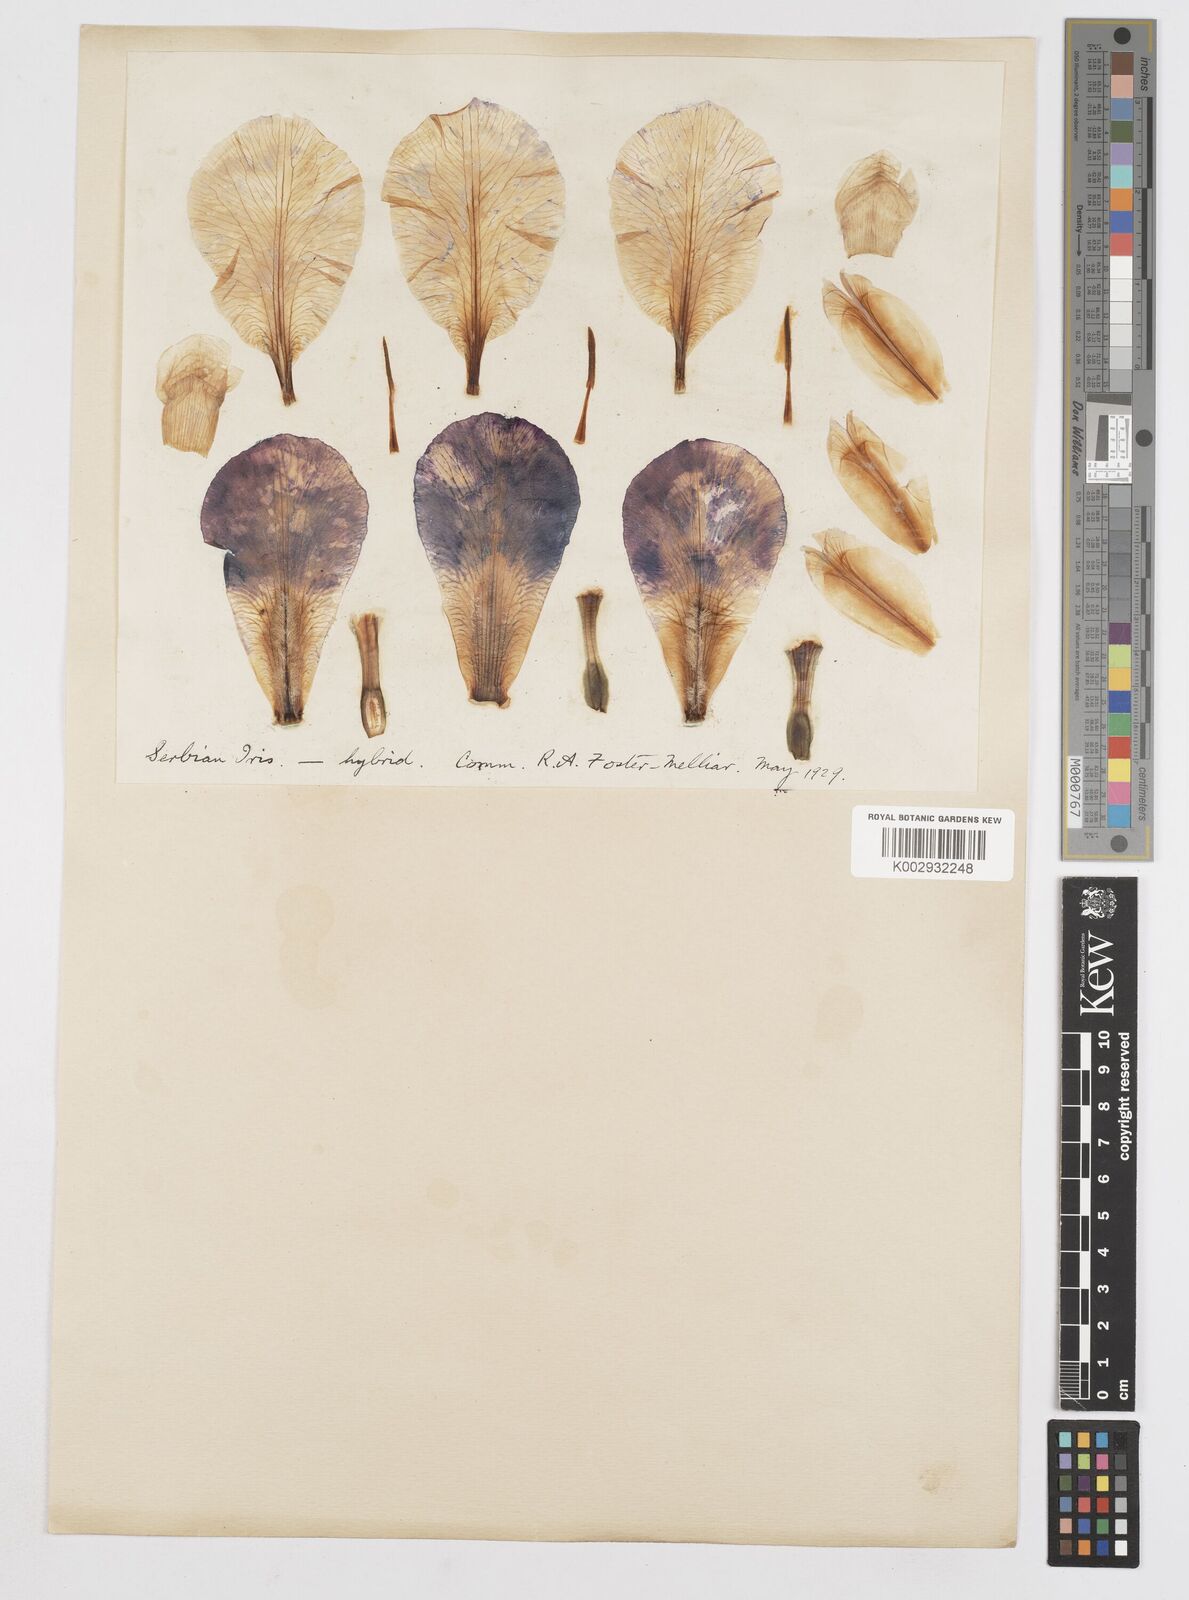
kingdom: Plantae
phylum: Tracheophyta
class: Liliopsida
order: Asparagales
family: Iridaceae
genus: Iris
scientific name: Iris
